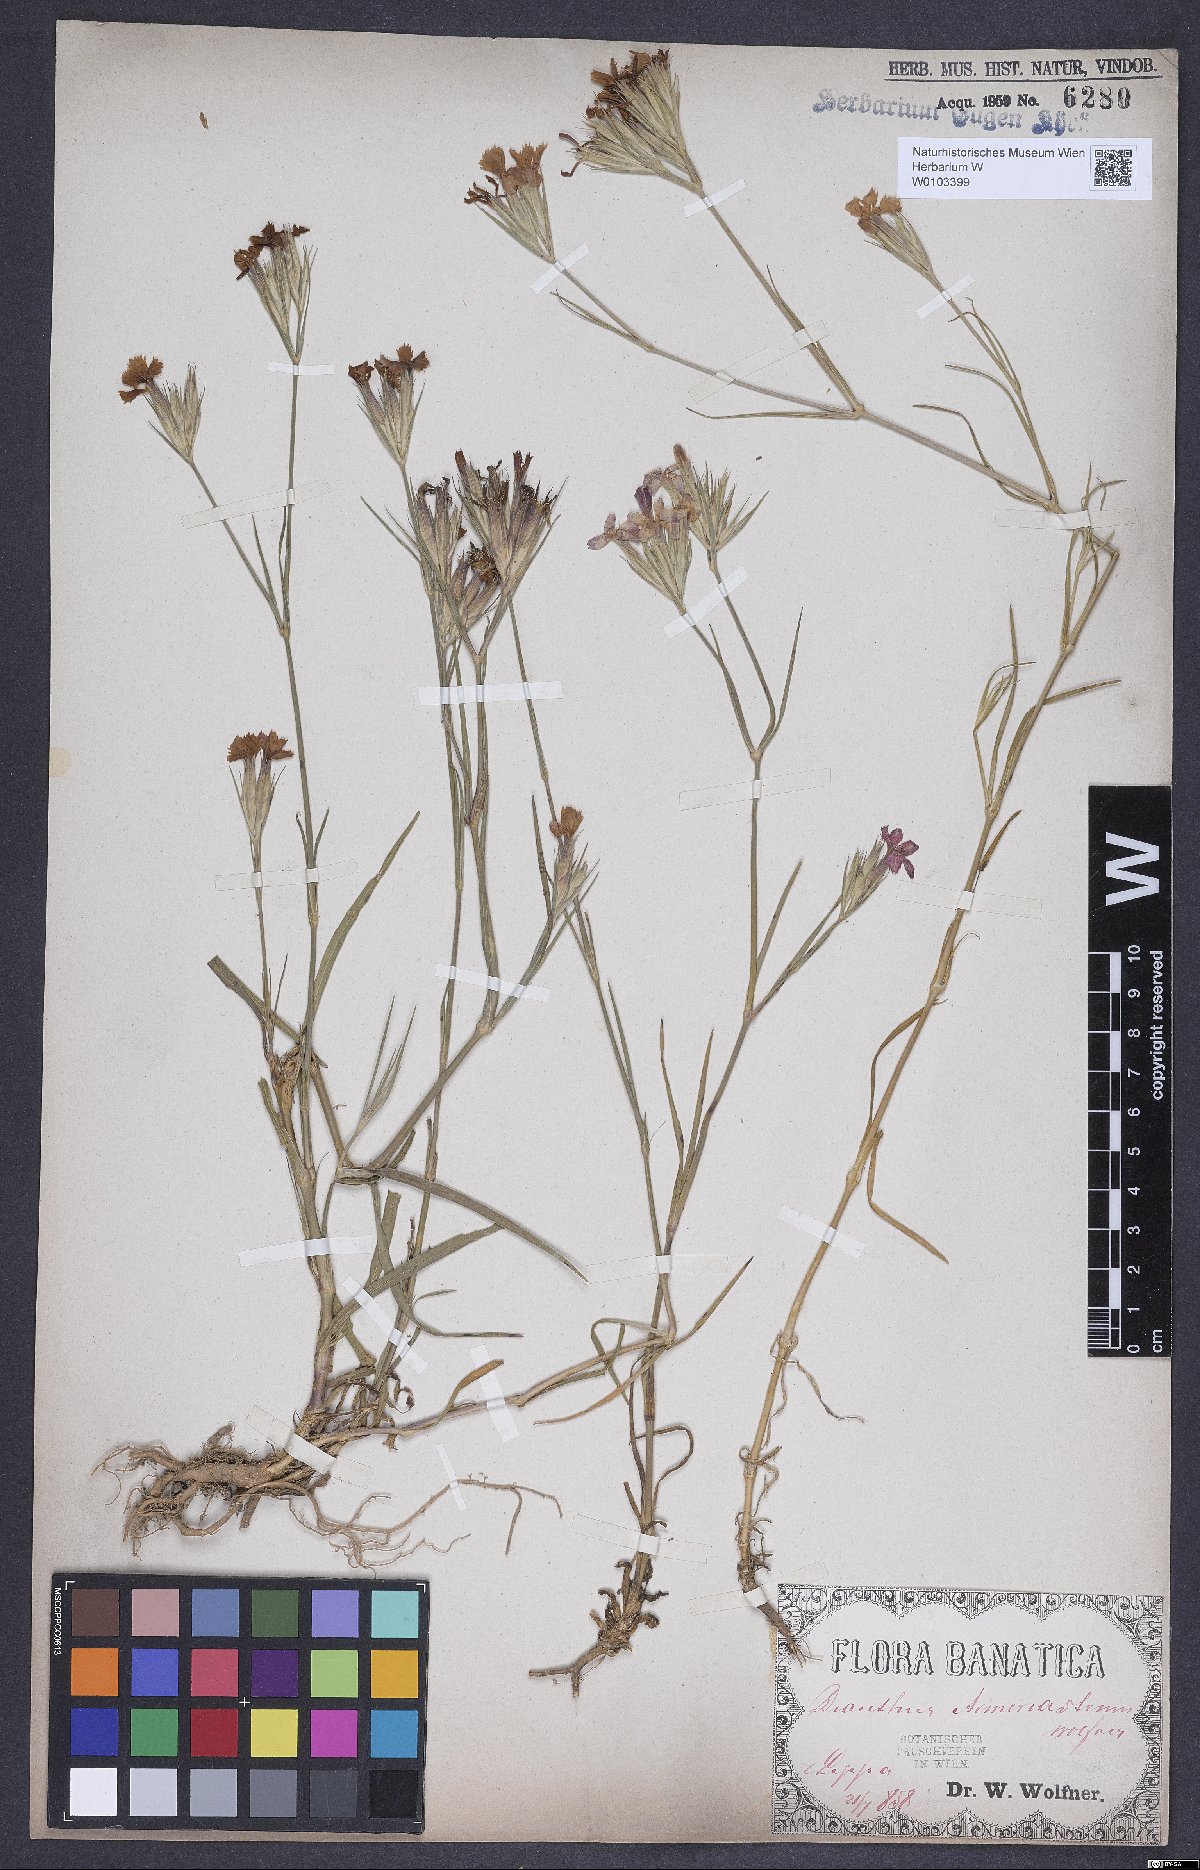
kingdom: Plantae
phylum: Tracheophyta
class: Magnoliopsida
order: Caryophyllales
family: Caryophyllaceae
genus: Dianthus
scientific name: Dianthus corymbosus
